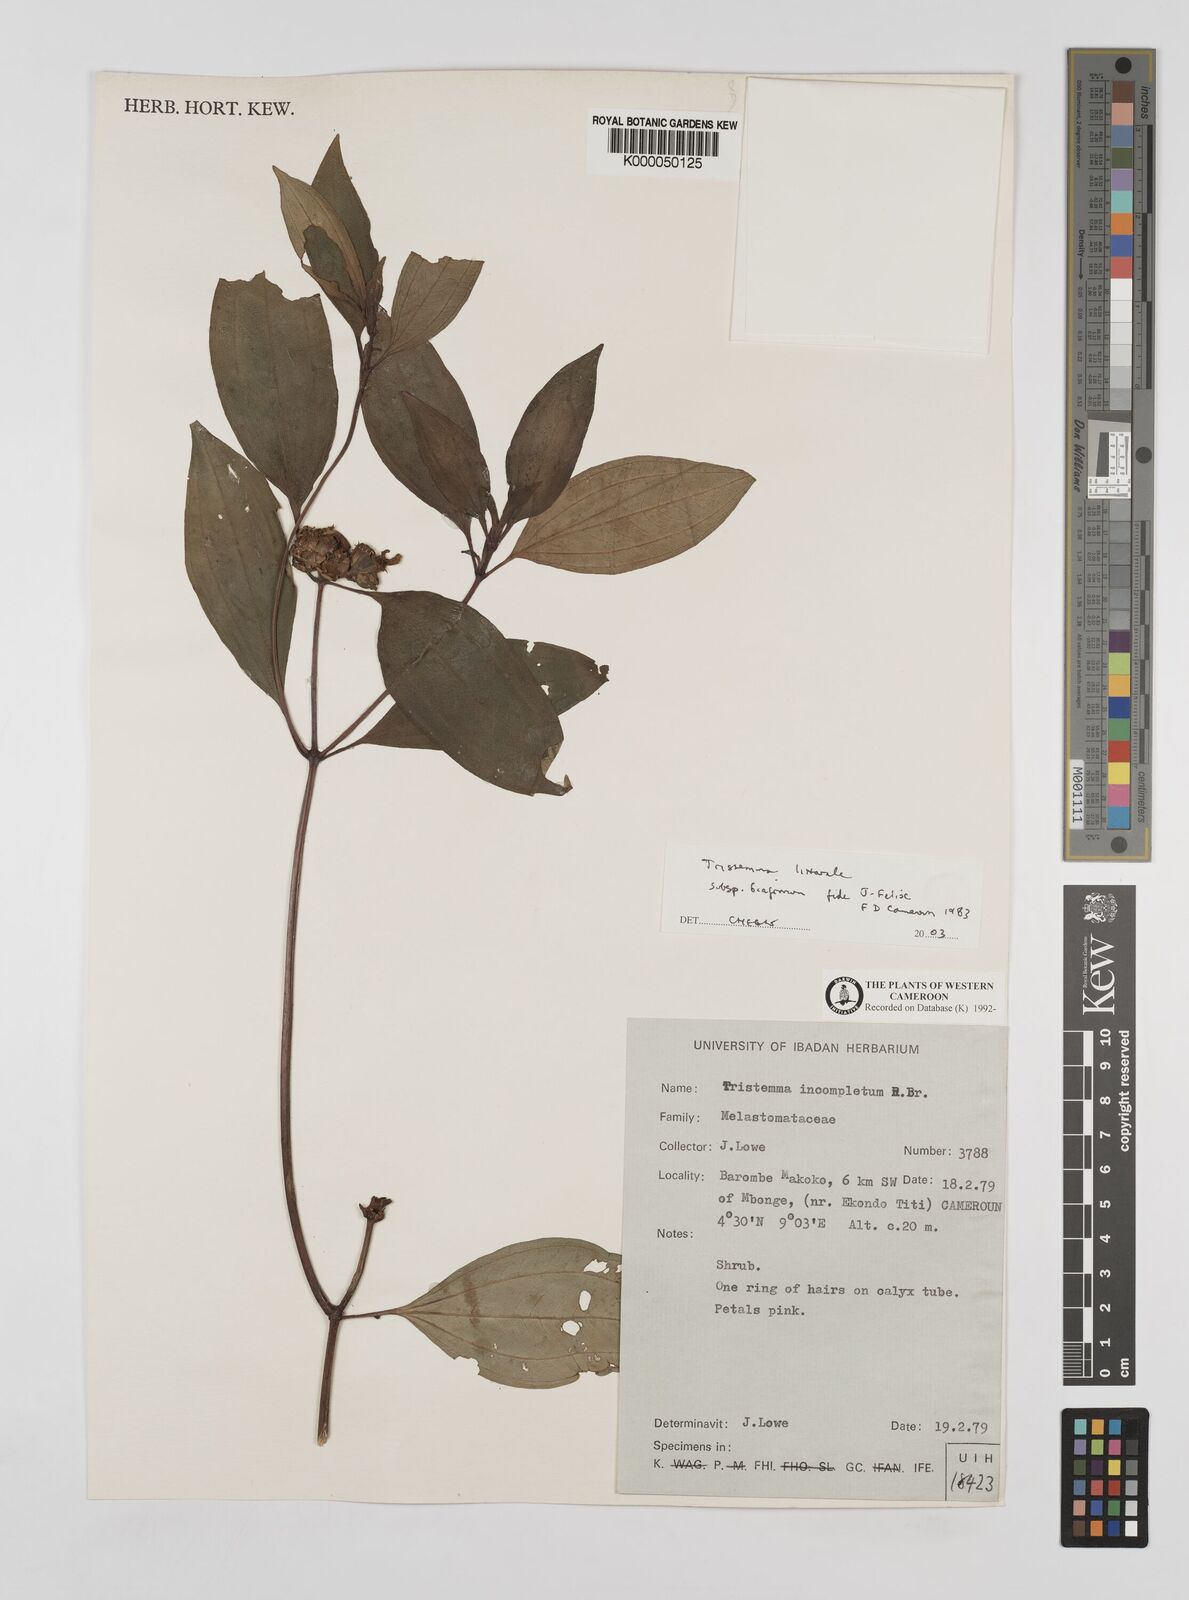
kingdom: Plantae
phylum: Tracheophyta
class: Magnoliopsida
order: Myrtales
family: Melastomataceae
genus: Tristemma
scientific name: Tristemma littorale
